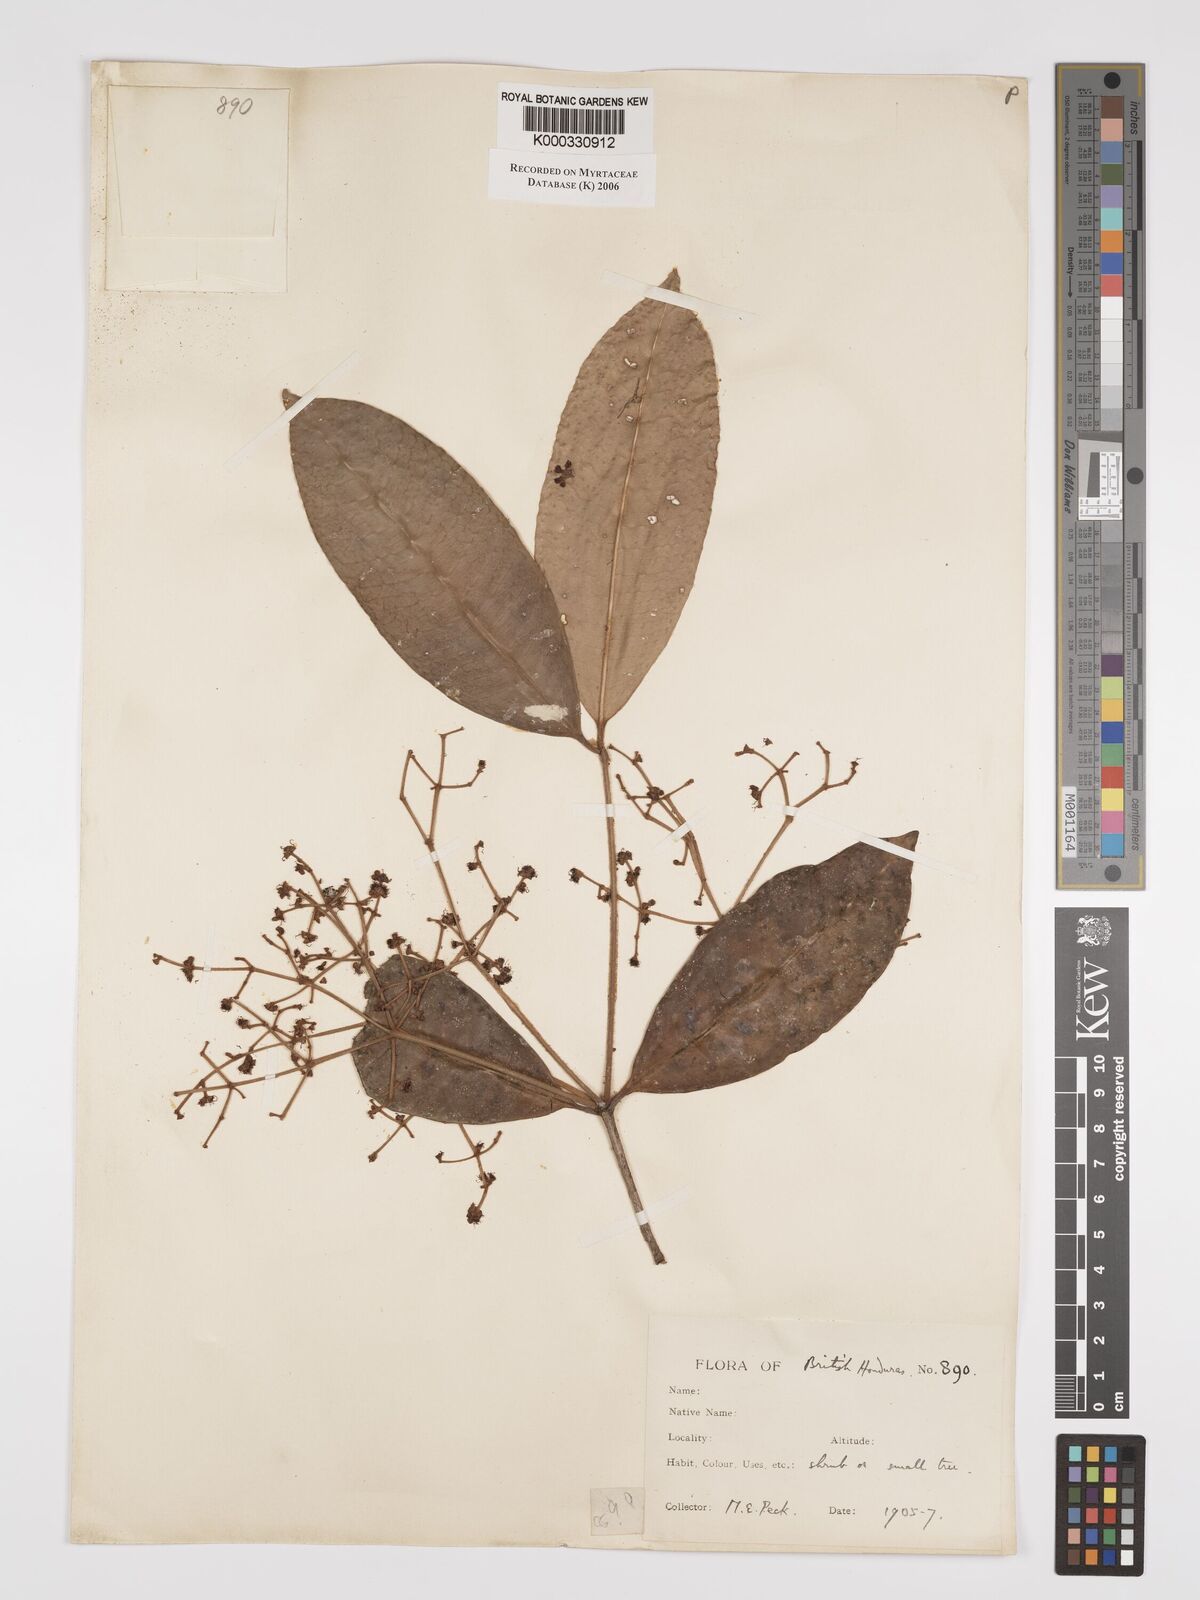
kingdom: Plantae
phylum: Tracheophyta
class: Magnoliopsida
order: Myrtales
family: Myrtaceae
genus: Myrcia
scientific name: Myrcia millspaughii
